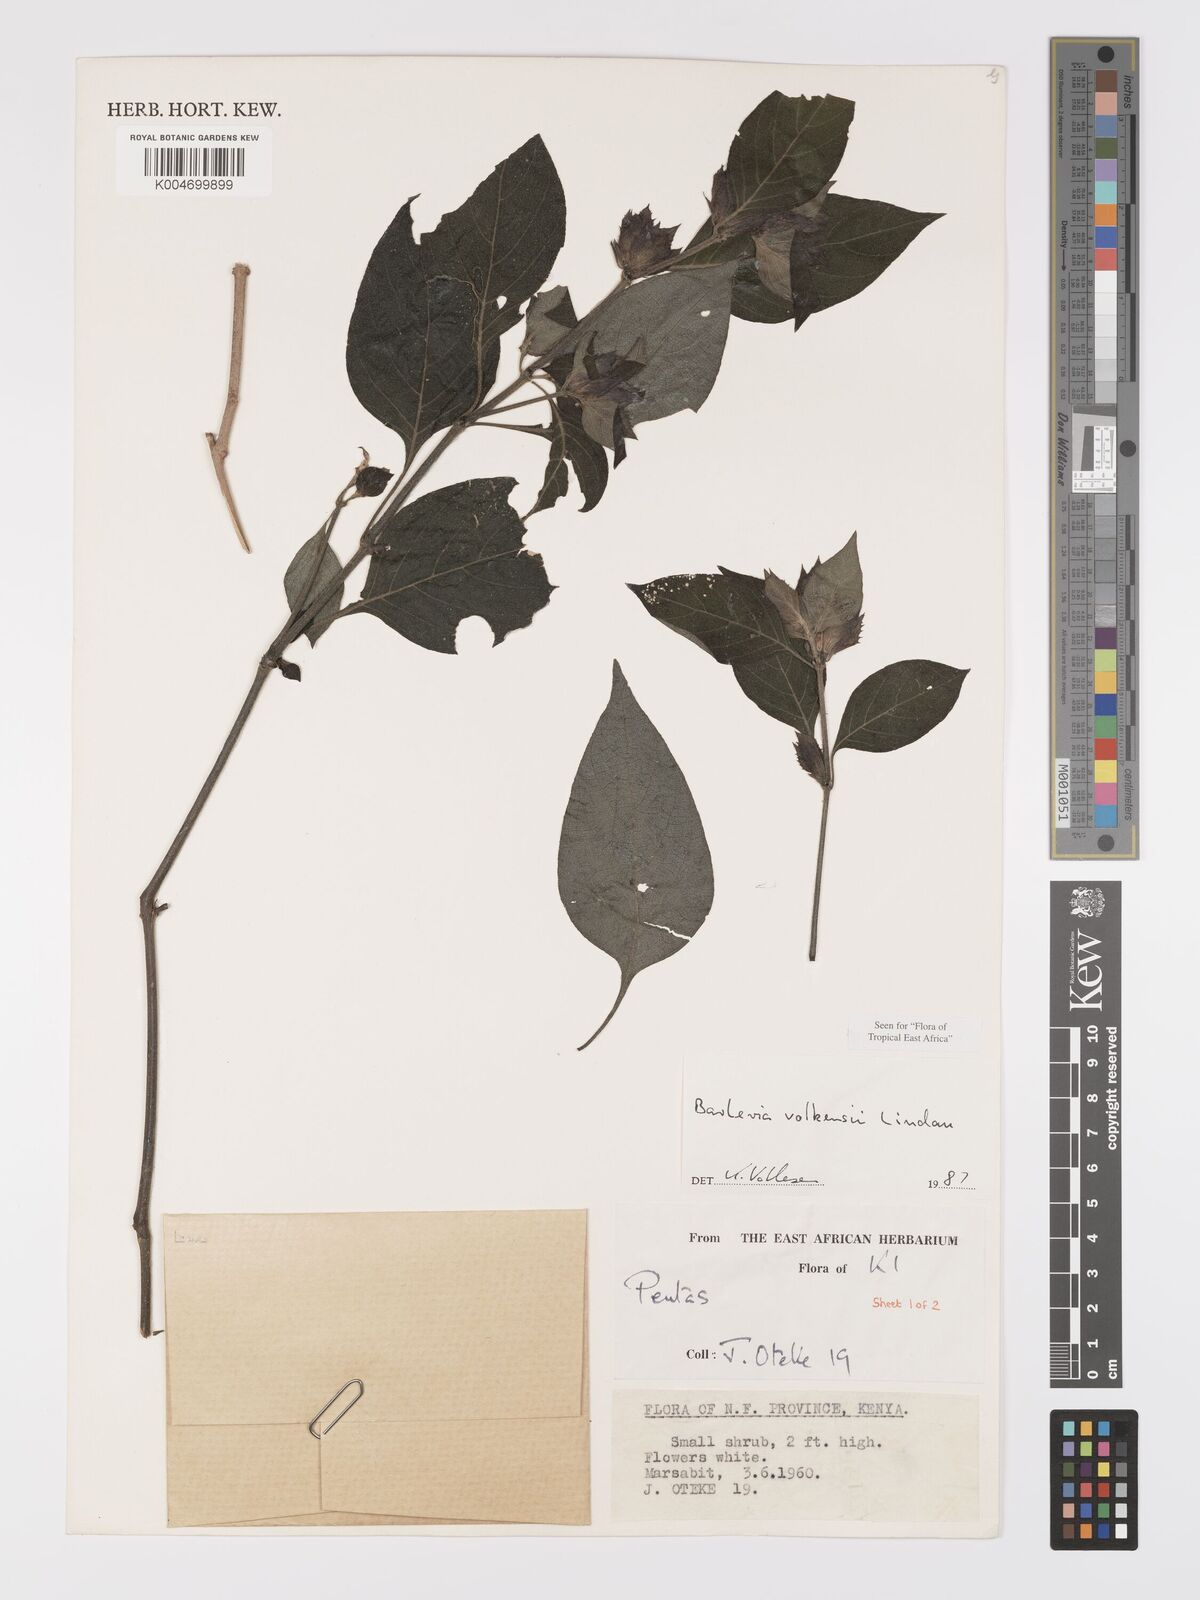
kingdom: Plantae
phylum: Tracheophyta
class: Magnoliopsida
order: Lamiales
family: Acanthaceae
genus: Barleria
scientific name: Barleria volkensii
